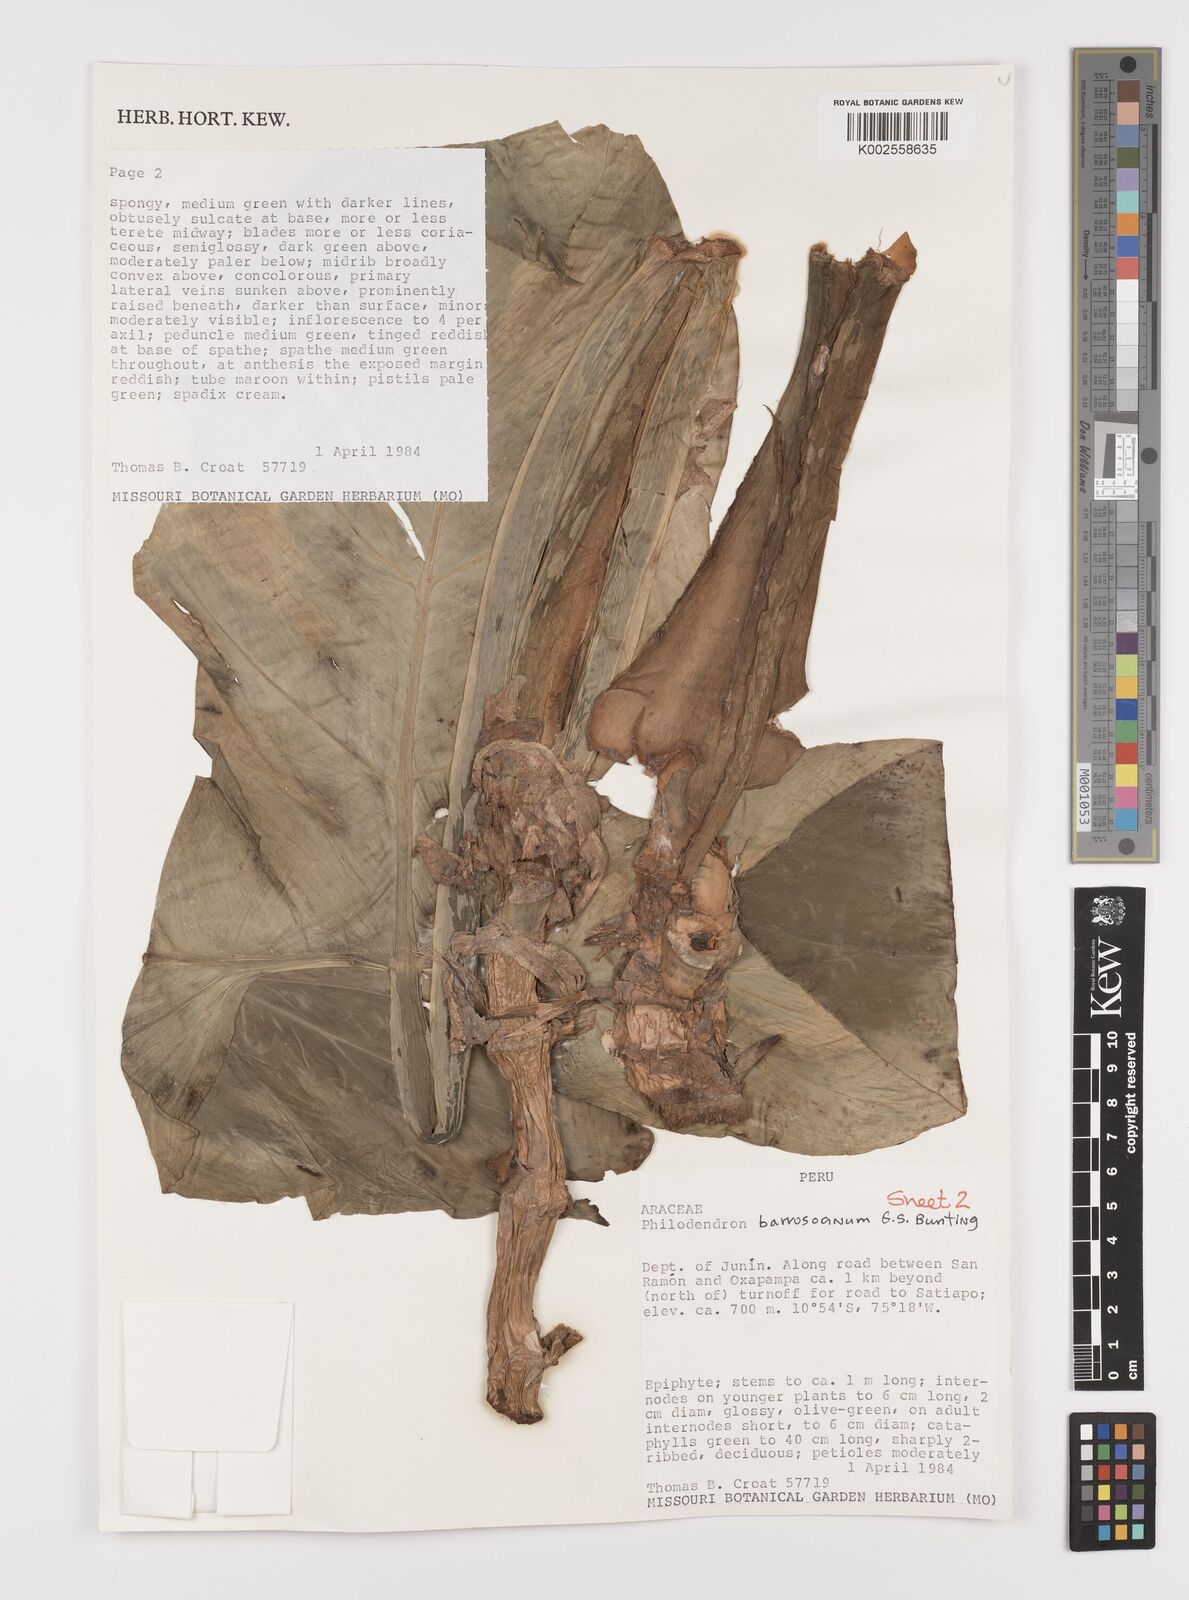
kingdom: Plantae
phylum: Tracheophyta
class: Liliopsida
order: Alismatales
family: Araceae
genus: Philodendron
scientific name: Philodendron barrosoanum
